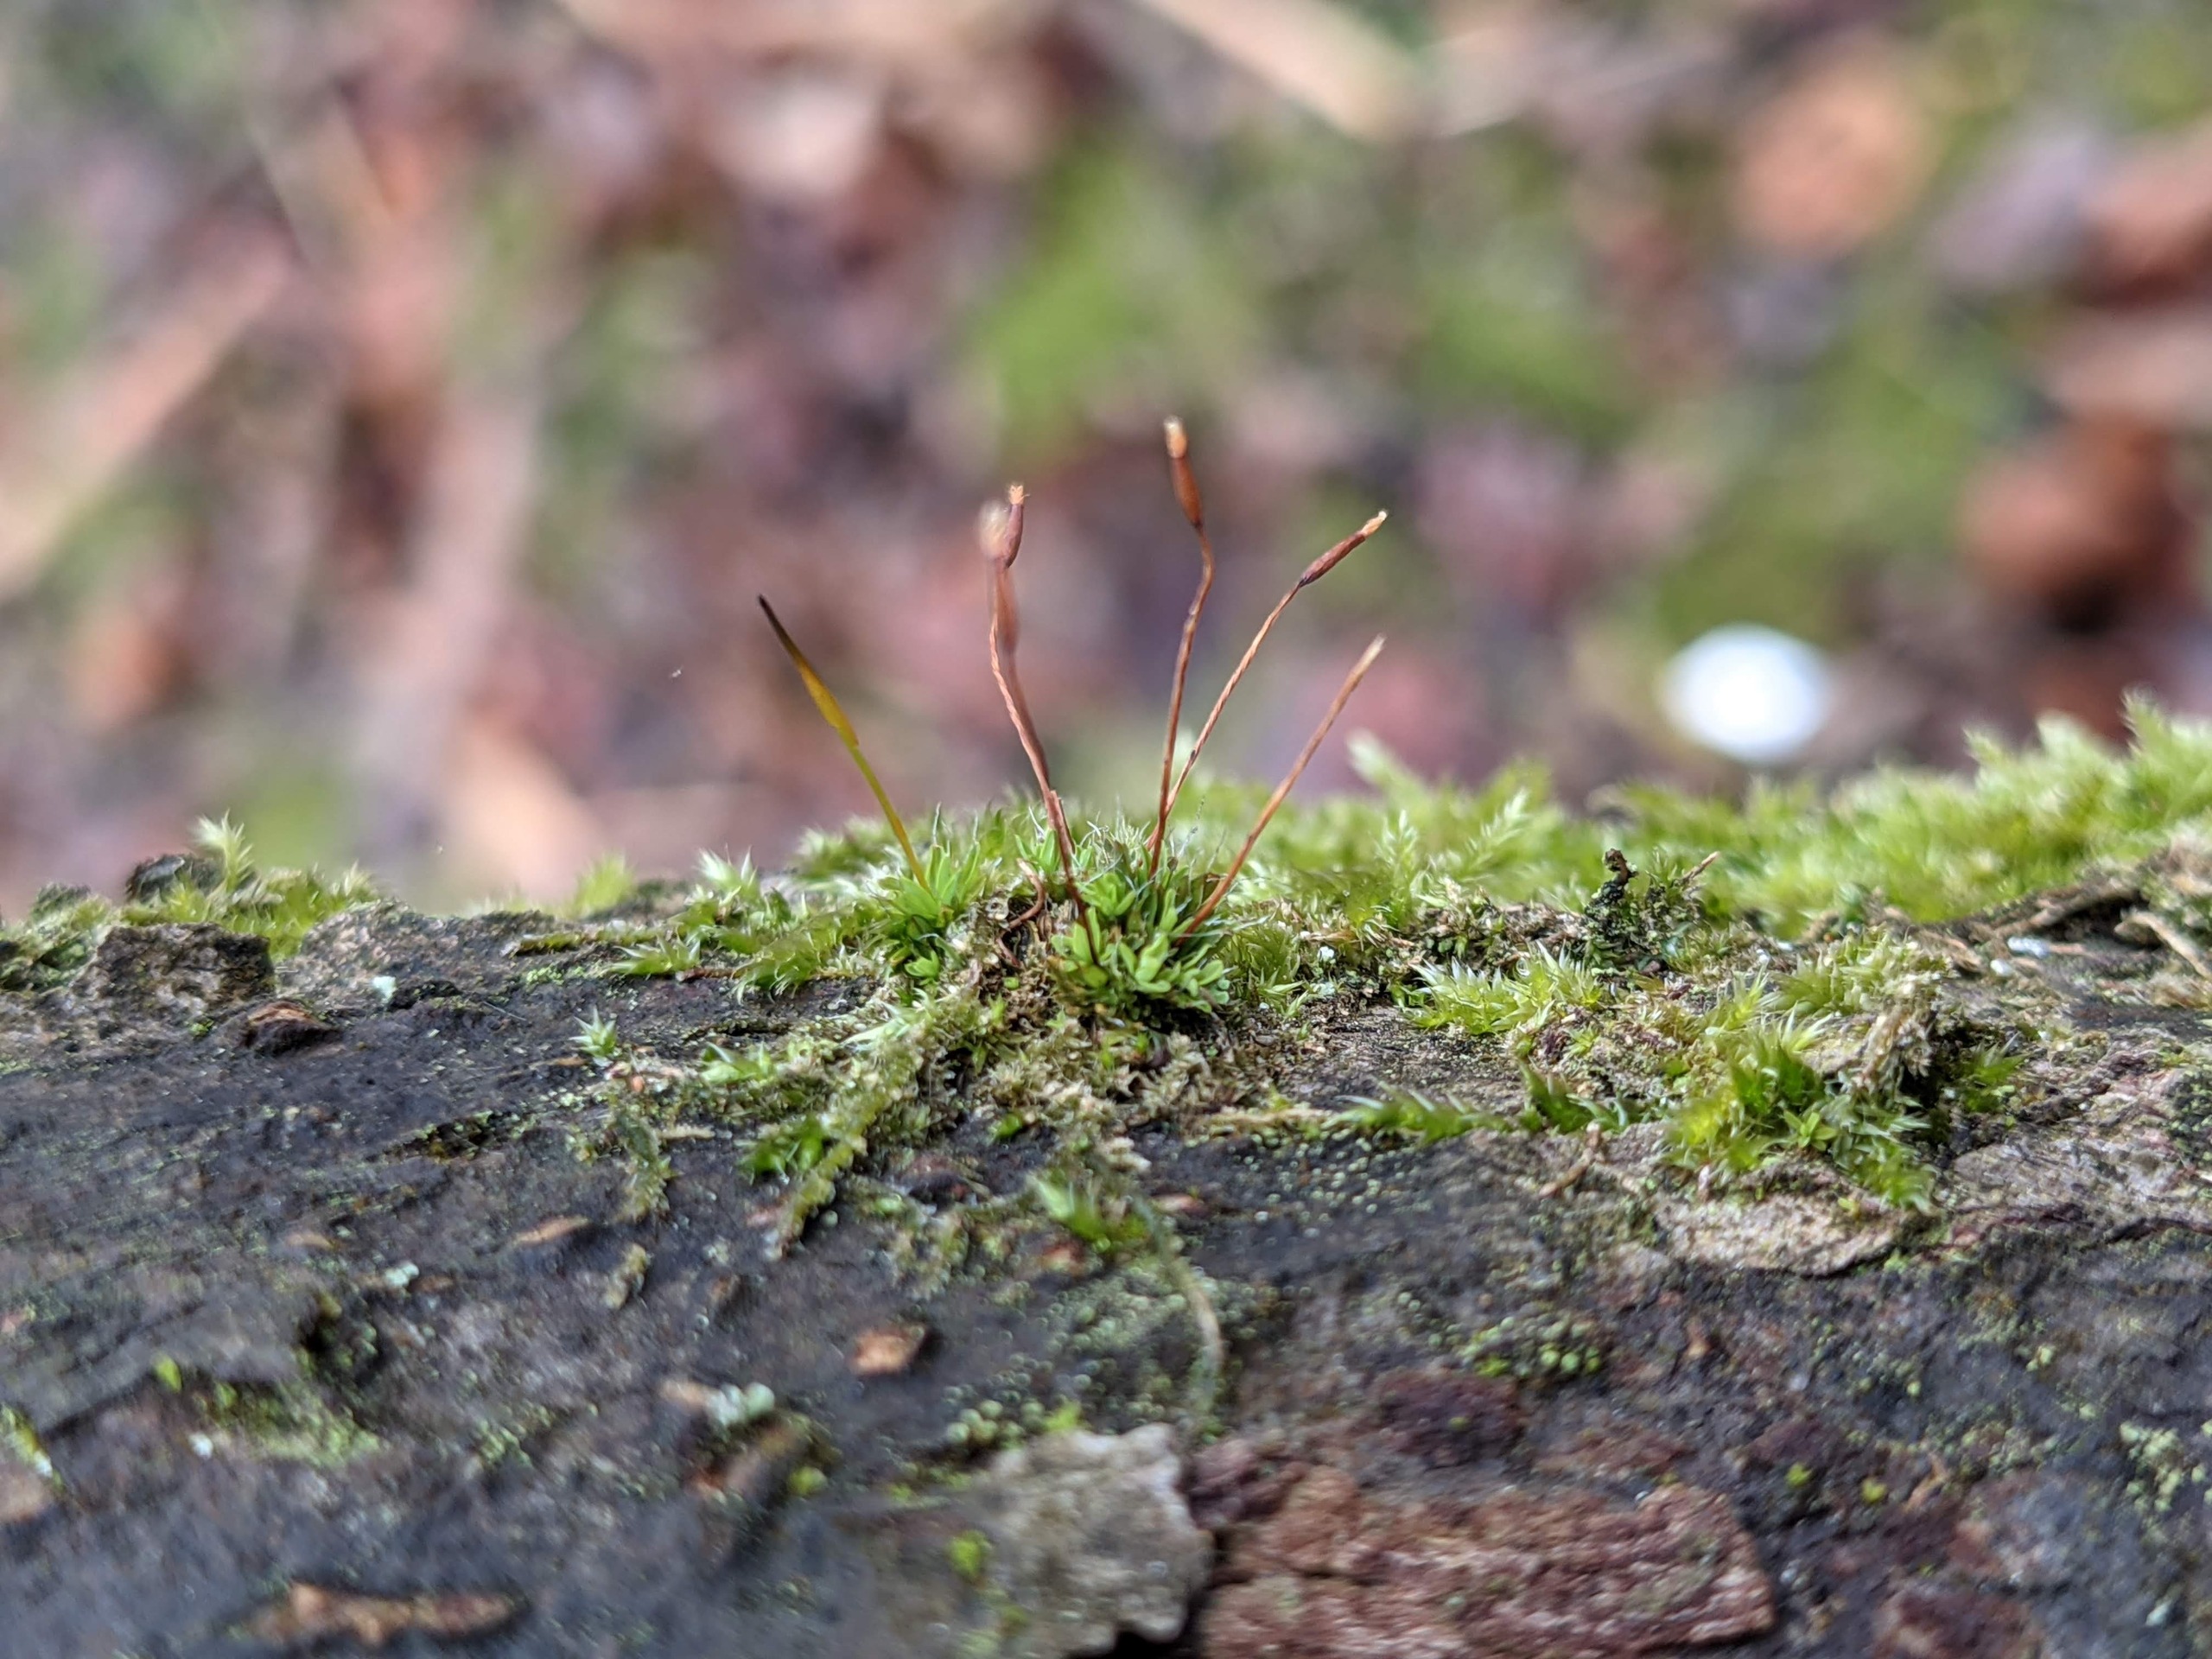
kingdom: Plantae
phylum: Bryophyta
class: Bryopsida
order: Pottiales
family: Pottiaceae
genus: Tortula
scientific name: Tortula muralis
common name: Mur-snotand
